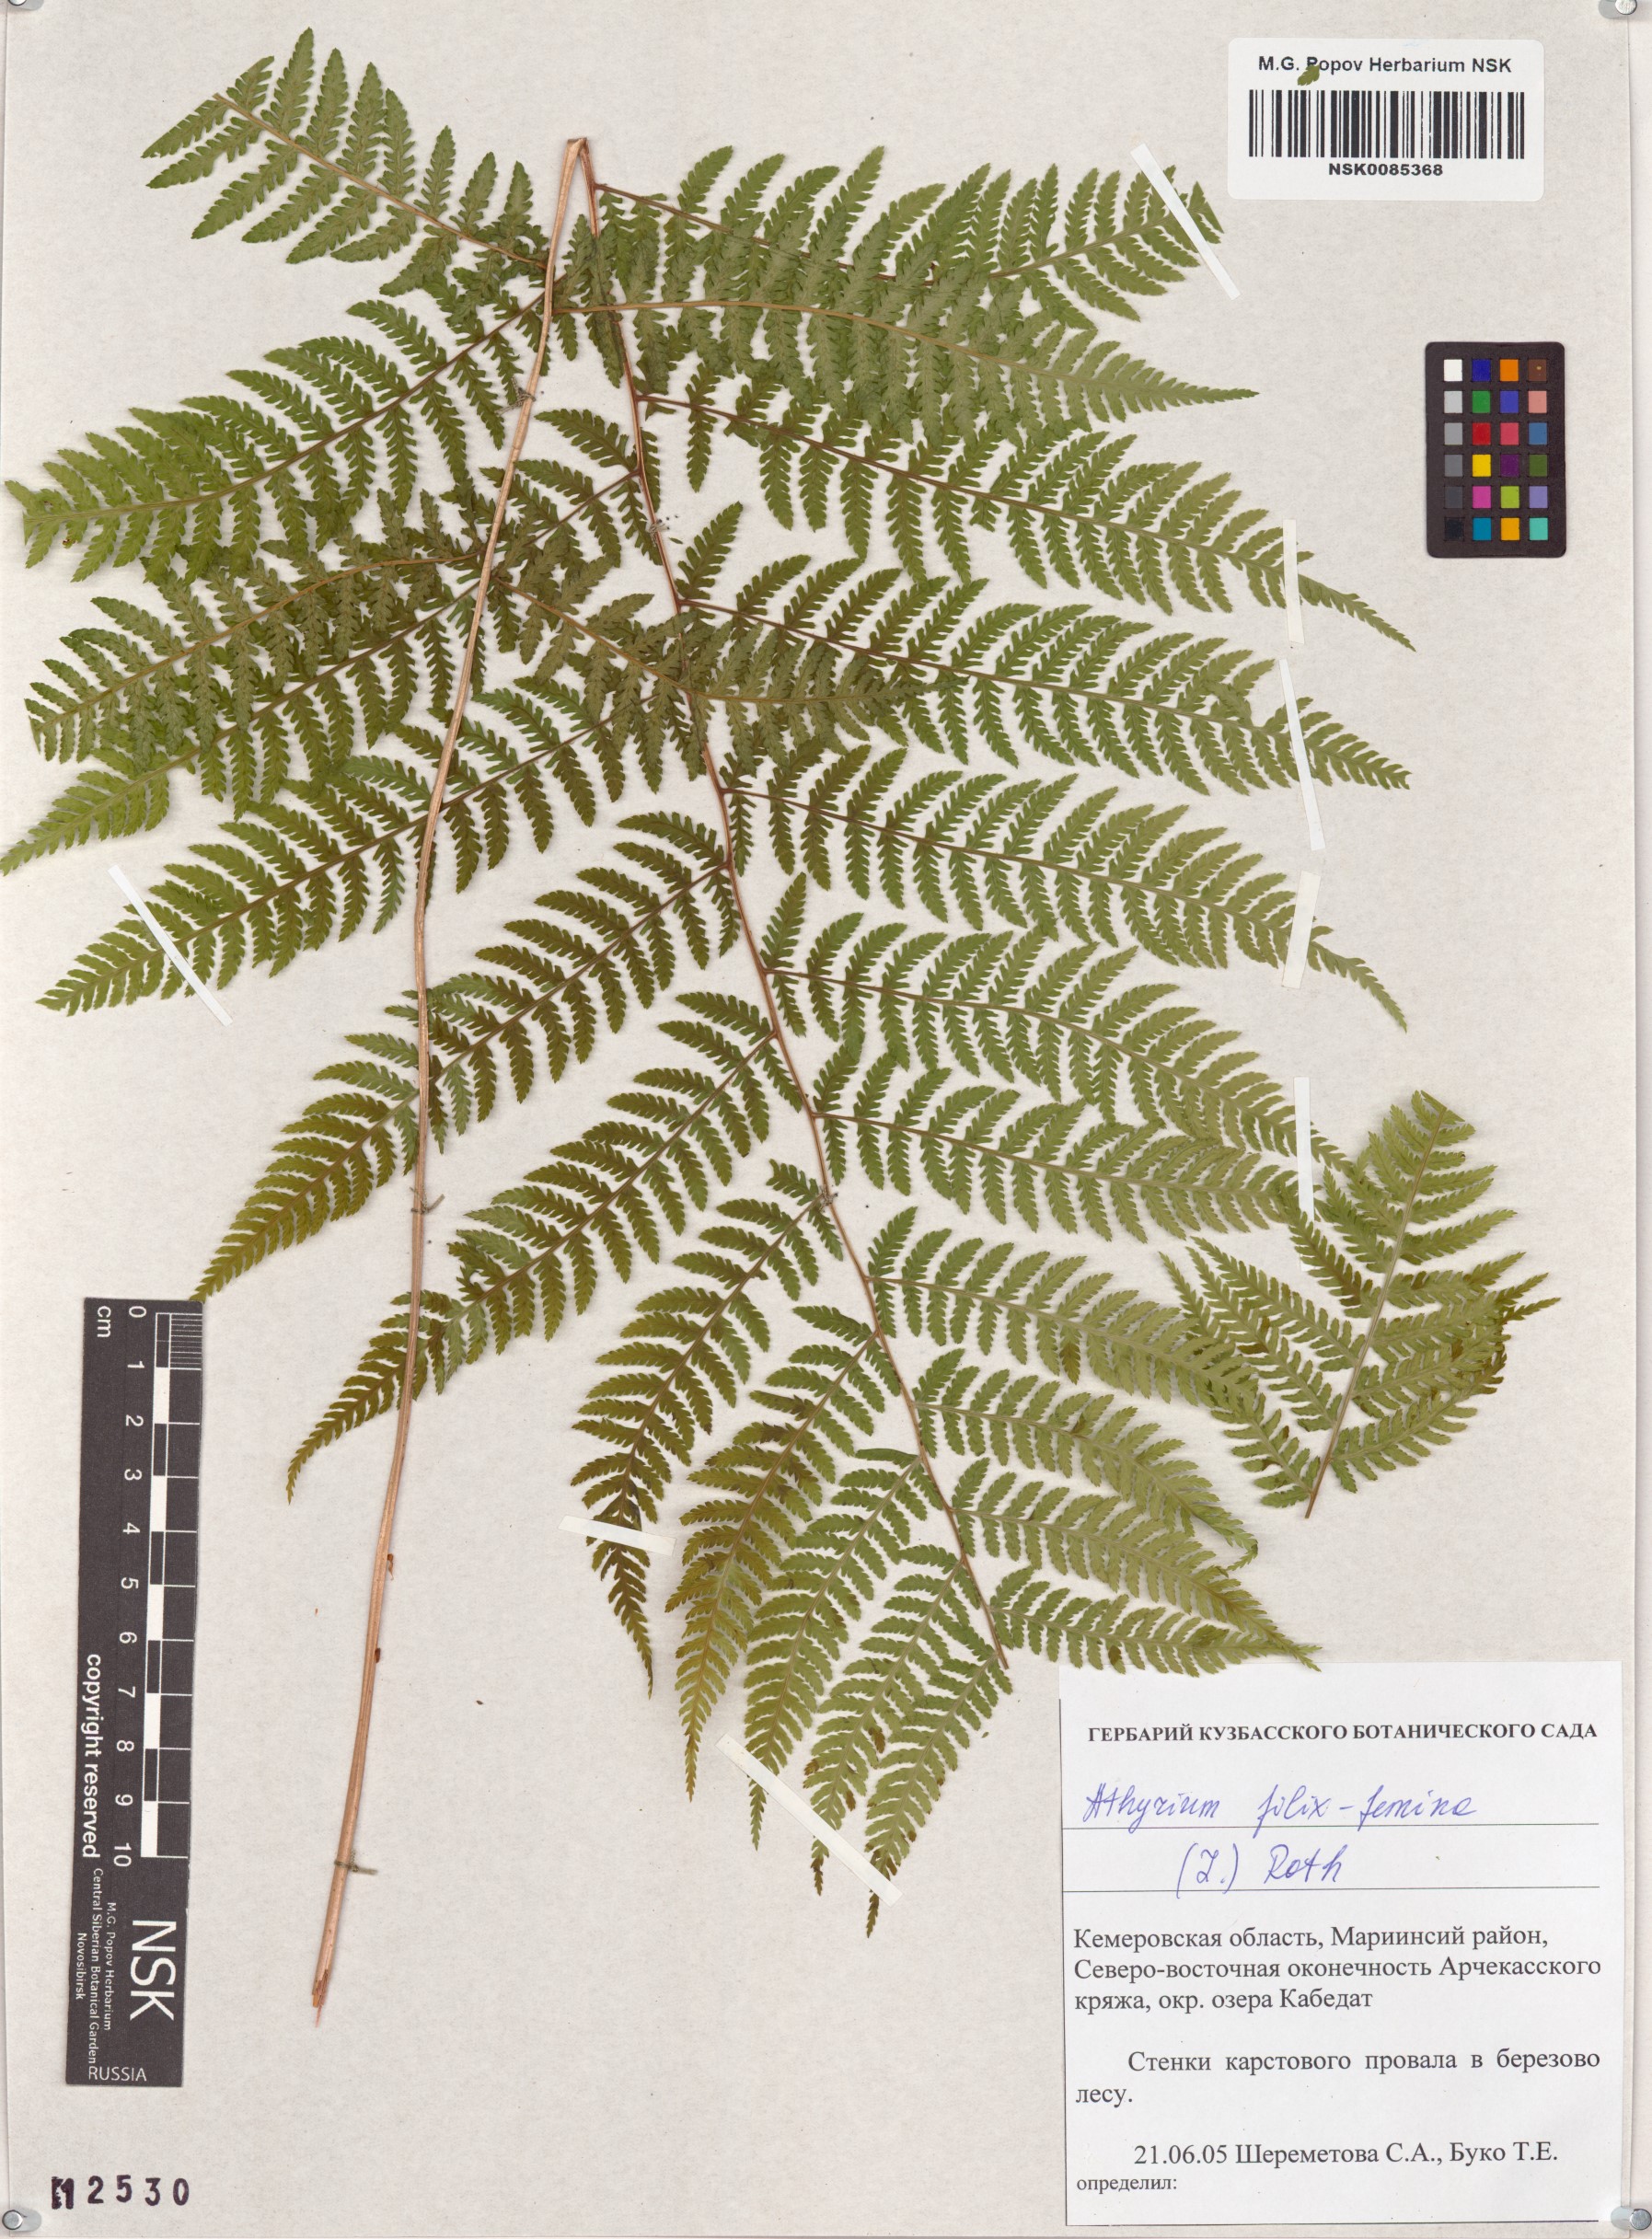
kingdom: Plantae
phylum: Tracheophyta
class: Polypodiopsida
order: Polypodiales
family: Athyriaceae
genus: Athyrium
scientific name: Athyrium filix-femina
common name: Lady fern
